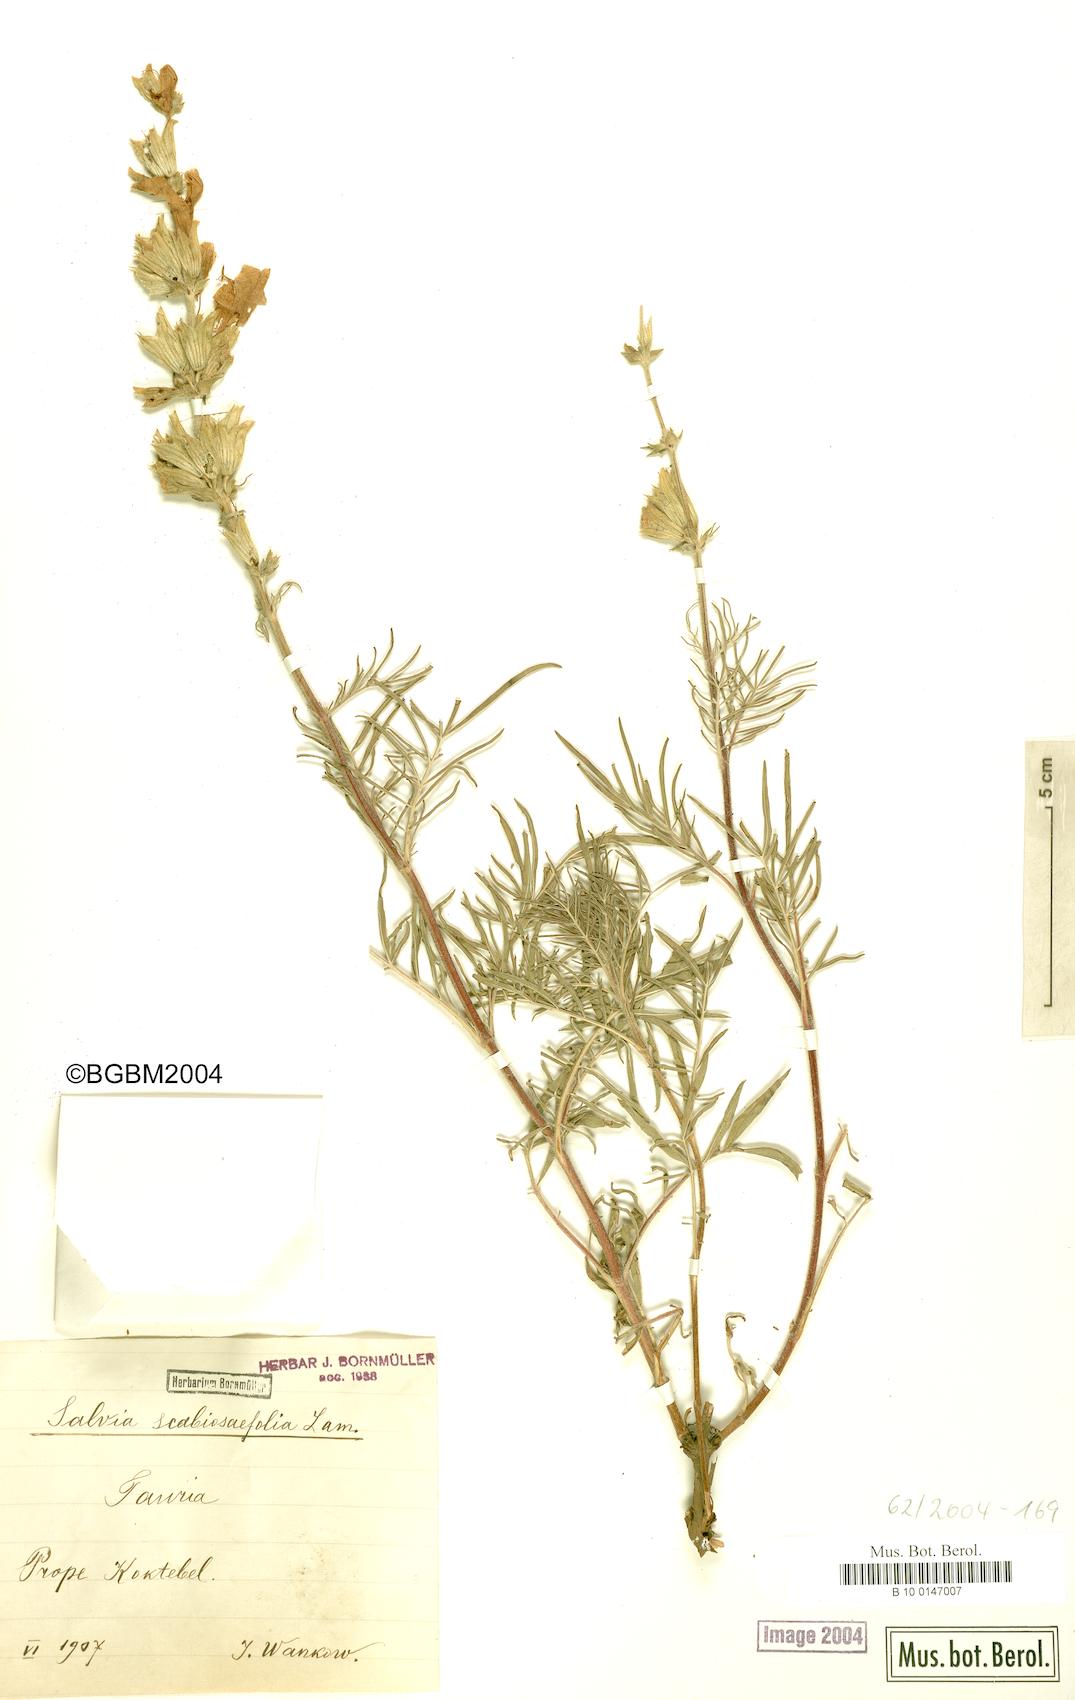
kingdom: Plantae
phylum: Tracheophyta
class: Magnoliopsida
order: Lamiales
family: Lamiaceae
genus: Salvia
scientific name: Salvia scabiosifolia
